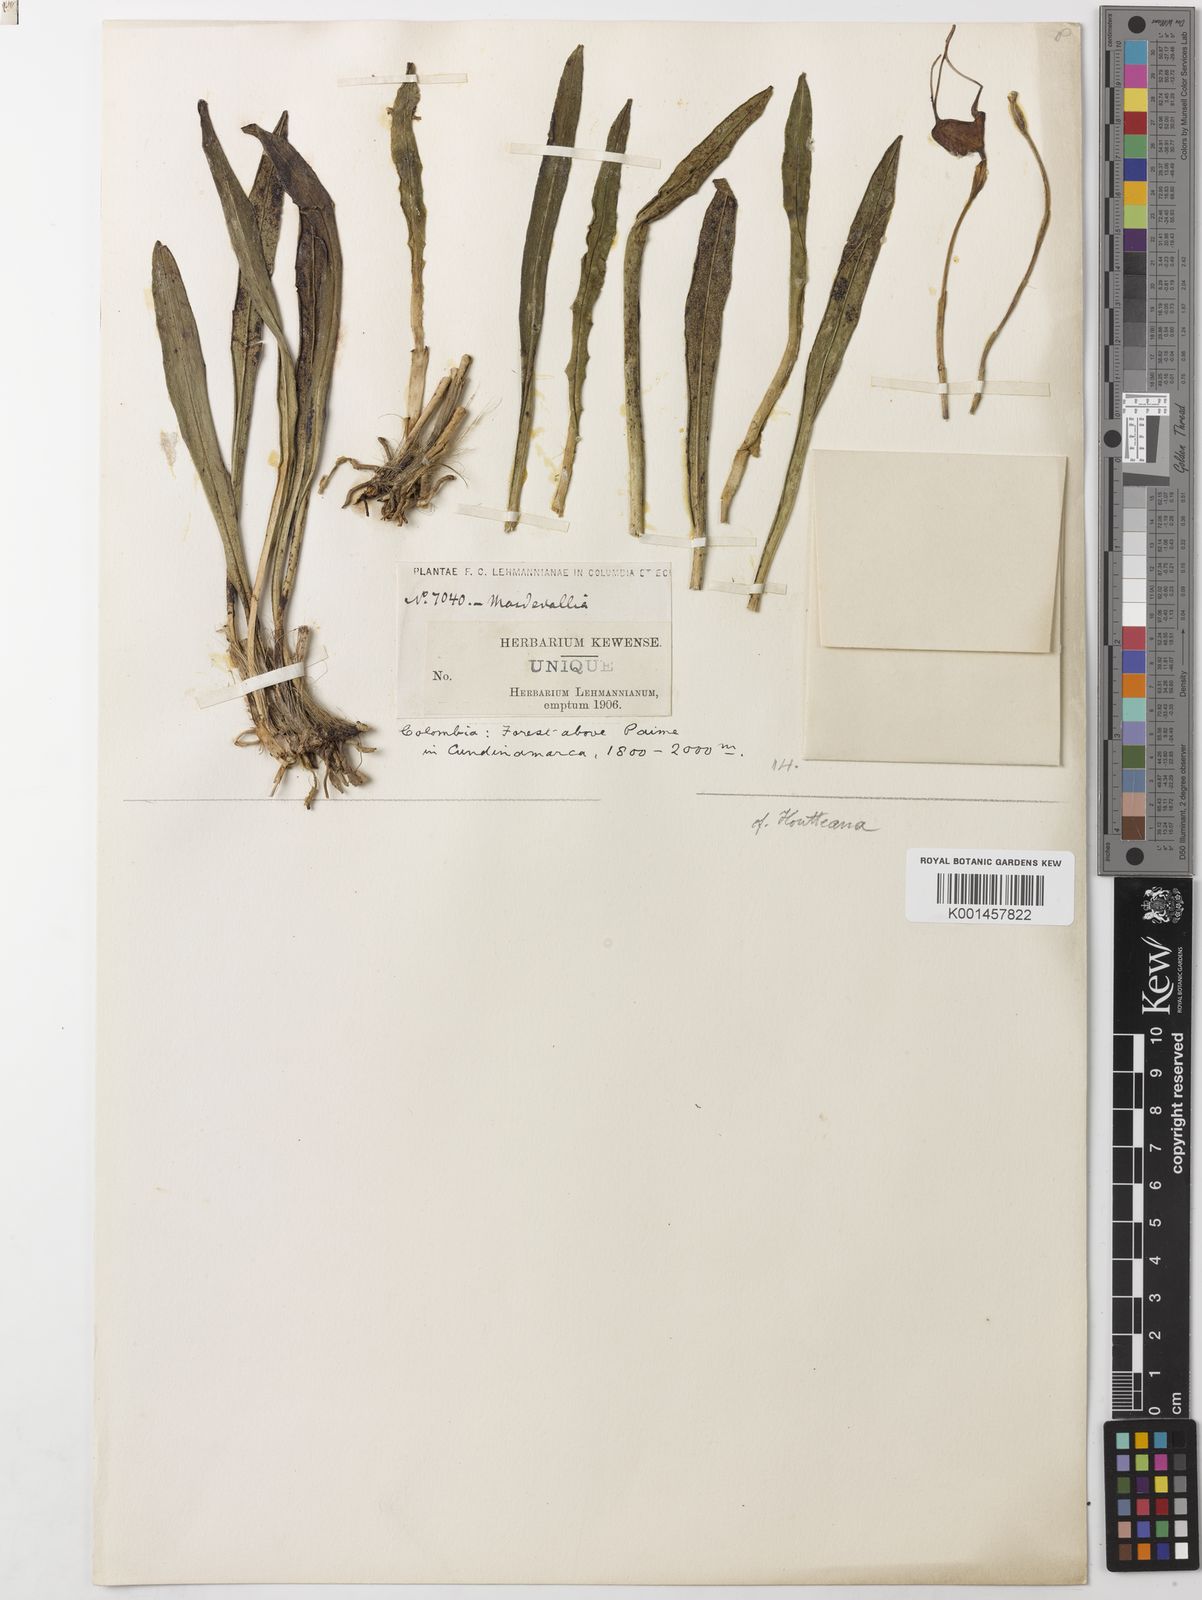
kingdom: Plantae
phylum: Tracheophyta
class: Liliopsida
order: Asparagales
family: Orchidaceae
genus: Dracula
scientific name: Dracula houtteana
